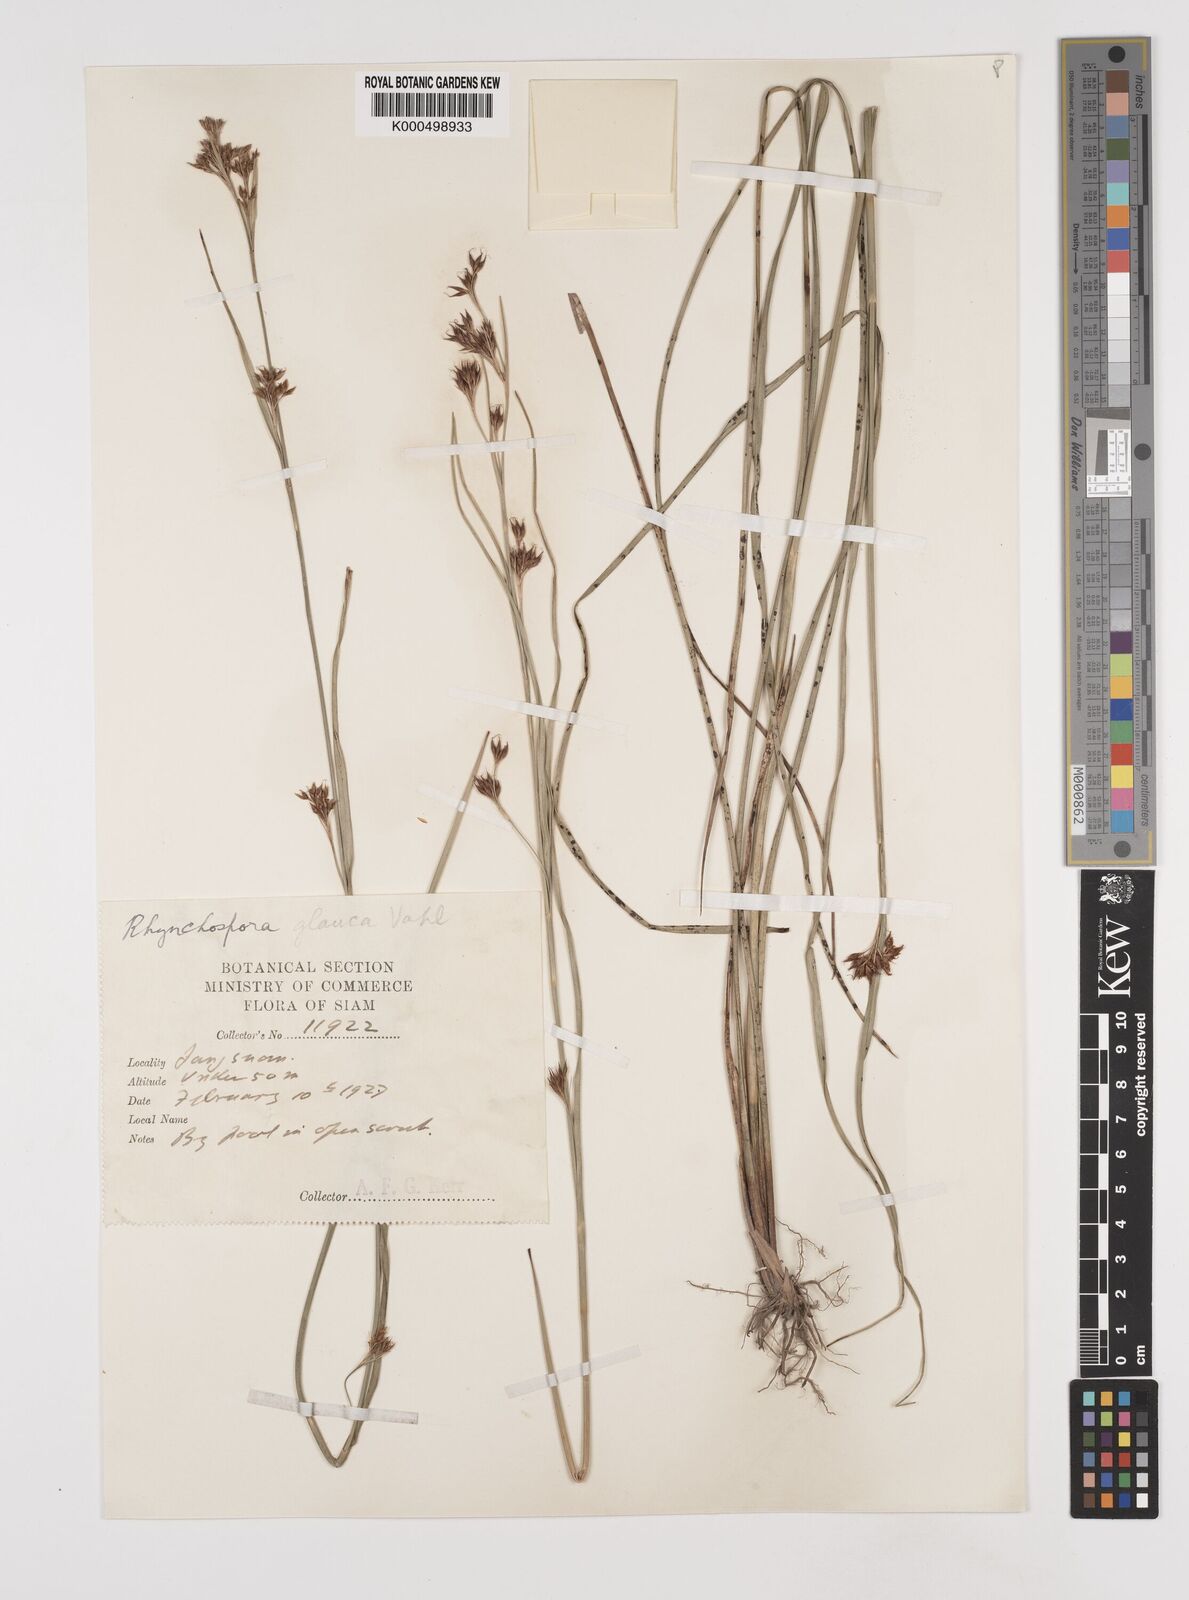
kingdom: Plantae
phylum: Tracheophyta
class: Liliopsida
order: Poales
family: Cyperaceae
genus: Rhynchospora
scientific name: Rhynchospora chinensis
